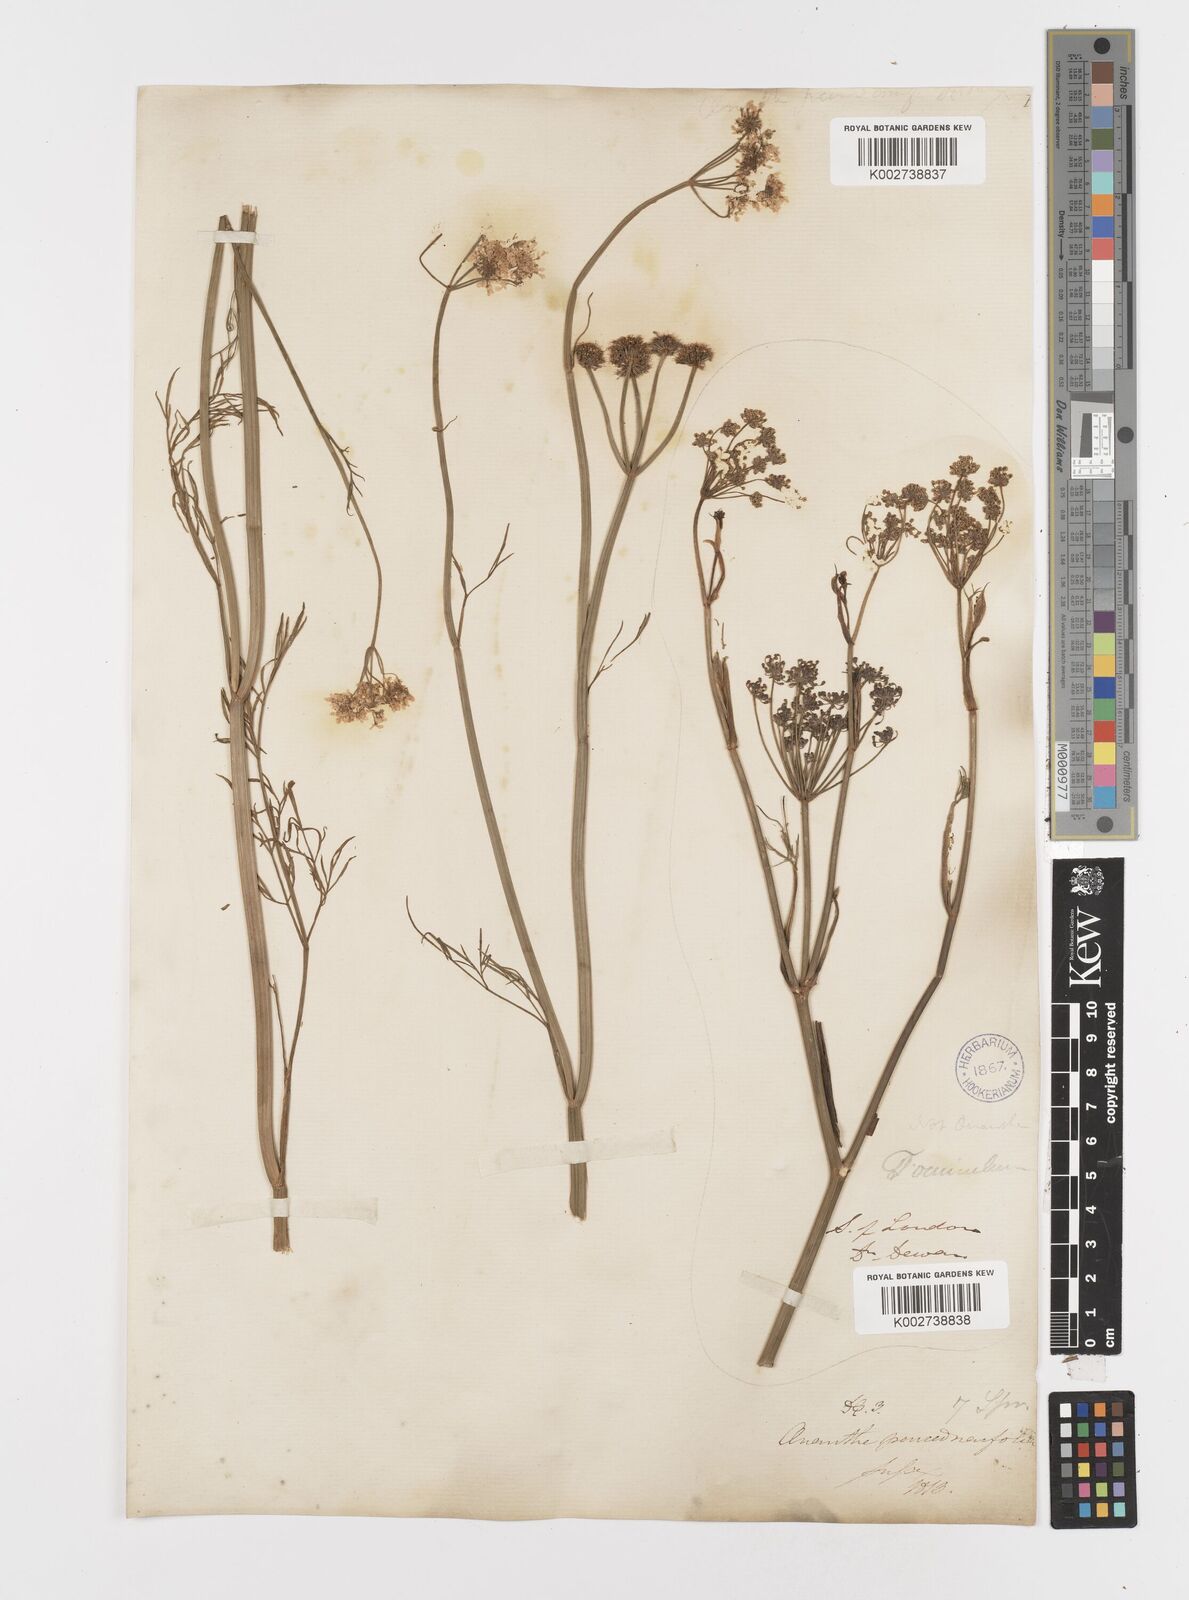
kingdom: Plantae
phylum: Tracheophyta
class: Magnoliopsida
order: Apiales
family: Apiaceae
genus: Oenanthe
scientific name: Oenanthe silaifolia
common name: Narrow-leaved water-dropwort
